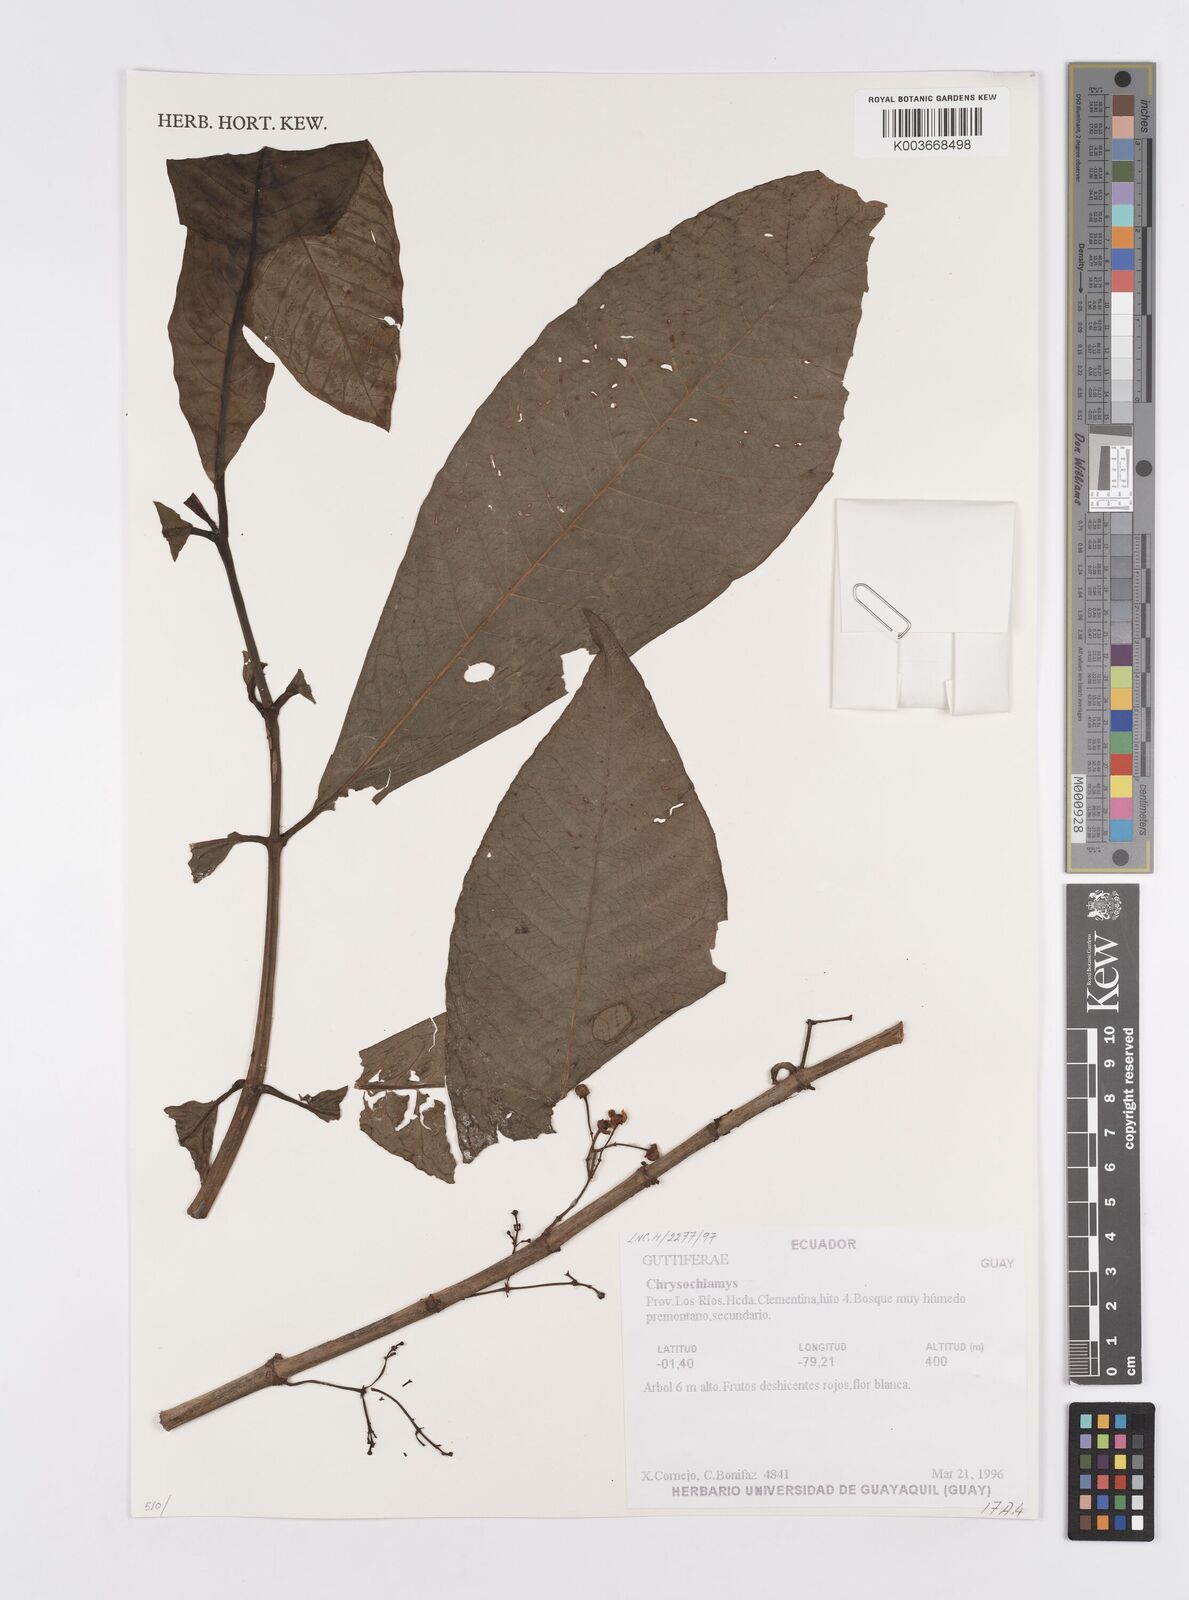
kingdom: Plantae
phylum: Tracheophyta
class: Magnoliopsida
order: Malpighiales
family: Clusiaceae
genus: Chrysochlamys
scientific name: Chrysochlamys
